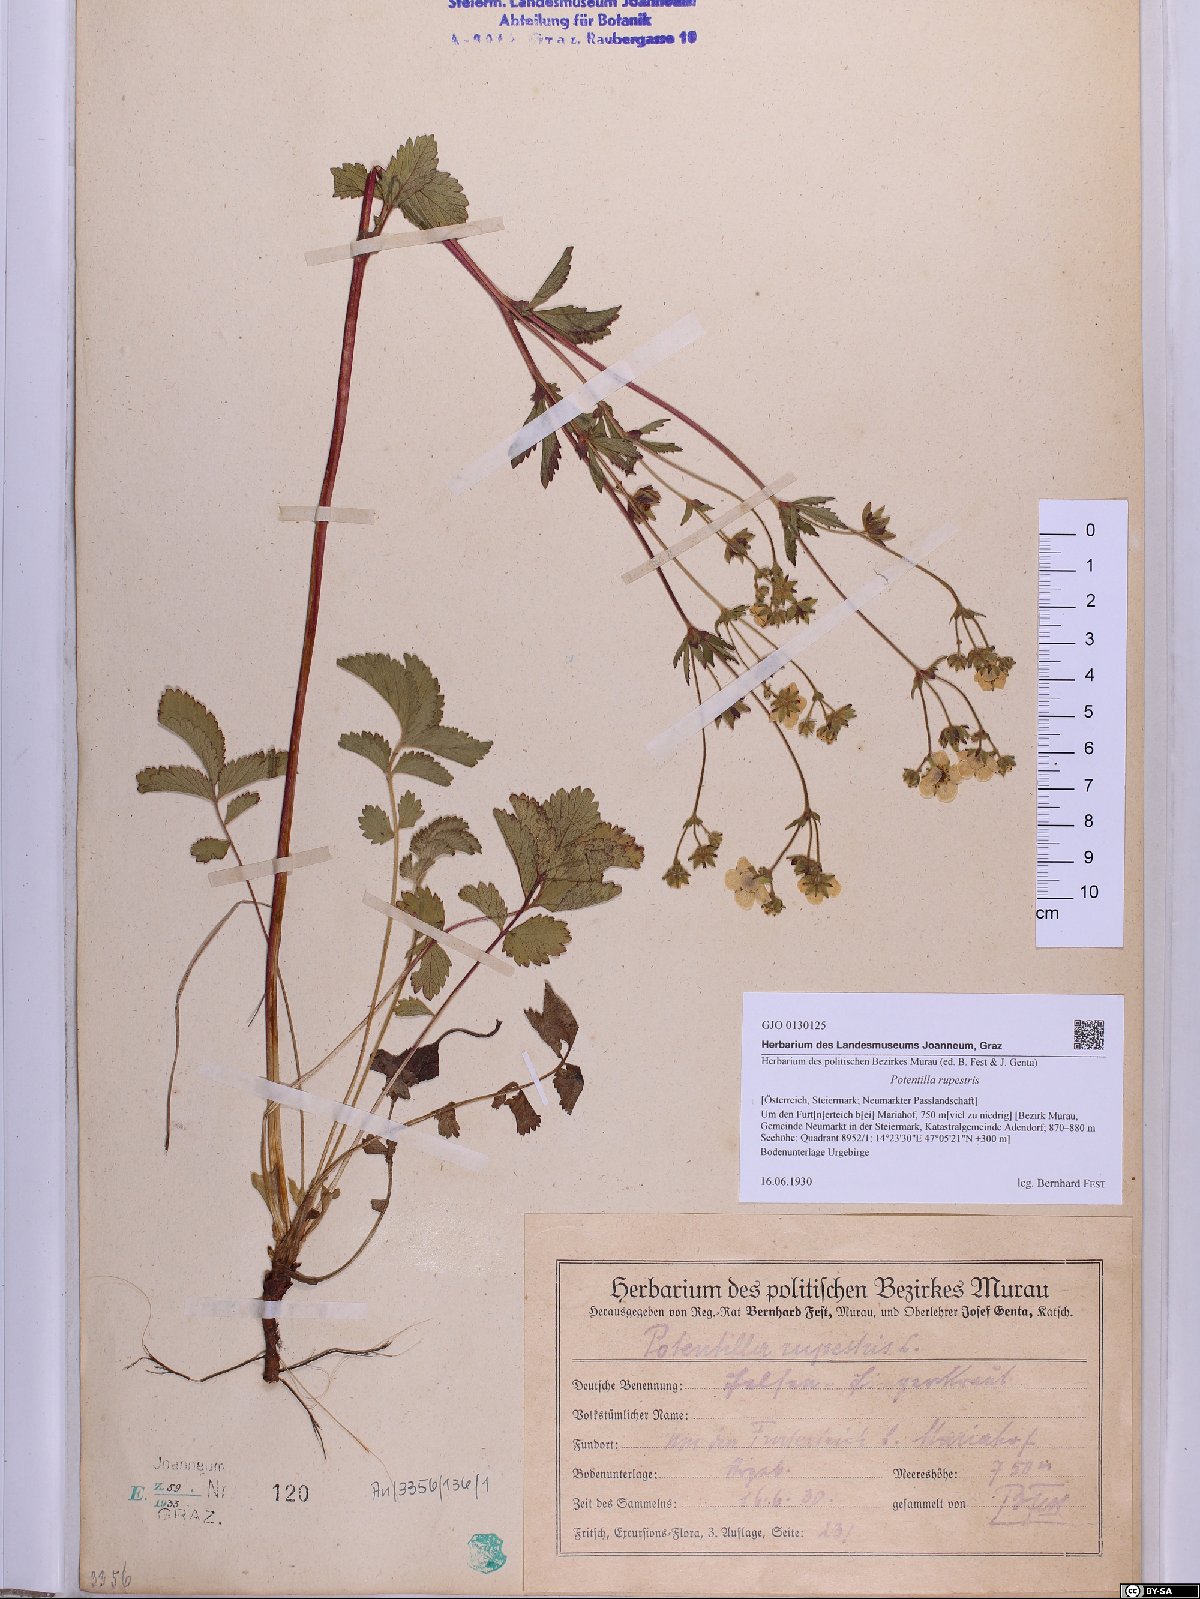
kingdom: Plantae
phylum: Tracheophyta
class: Magnoliopsida
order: Rosales
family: Rosaceae
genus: Drymocallis
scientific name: Drymocallis rupestris
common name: Rock cinquefoil
